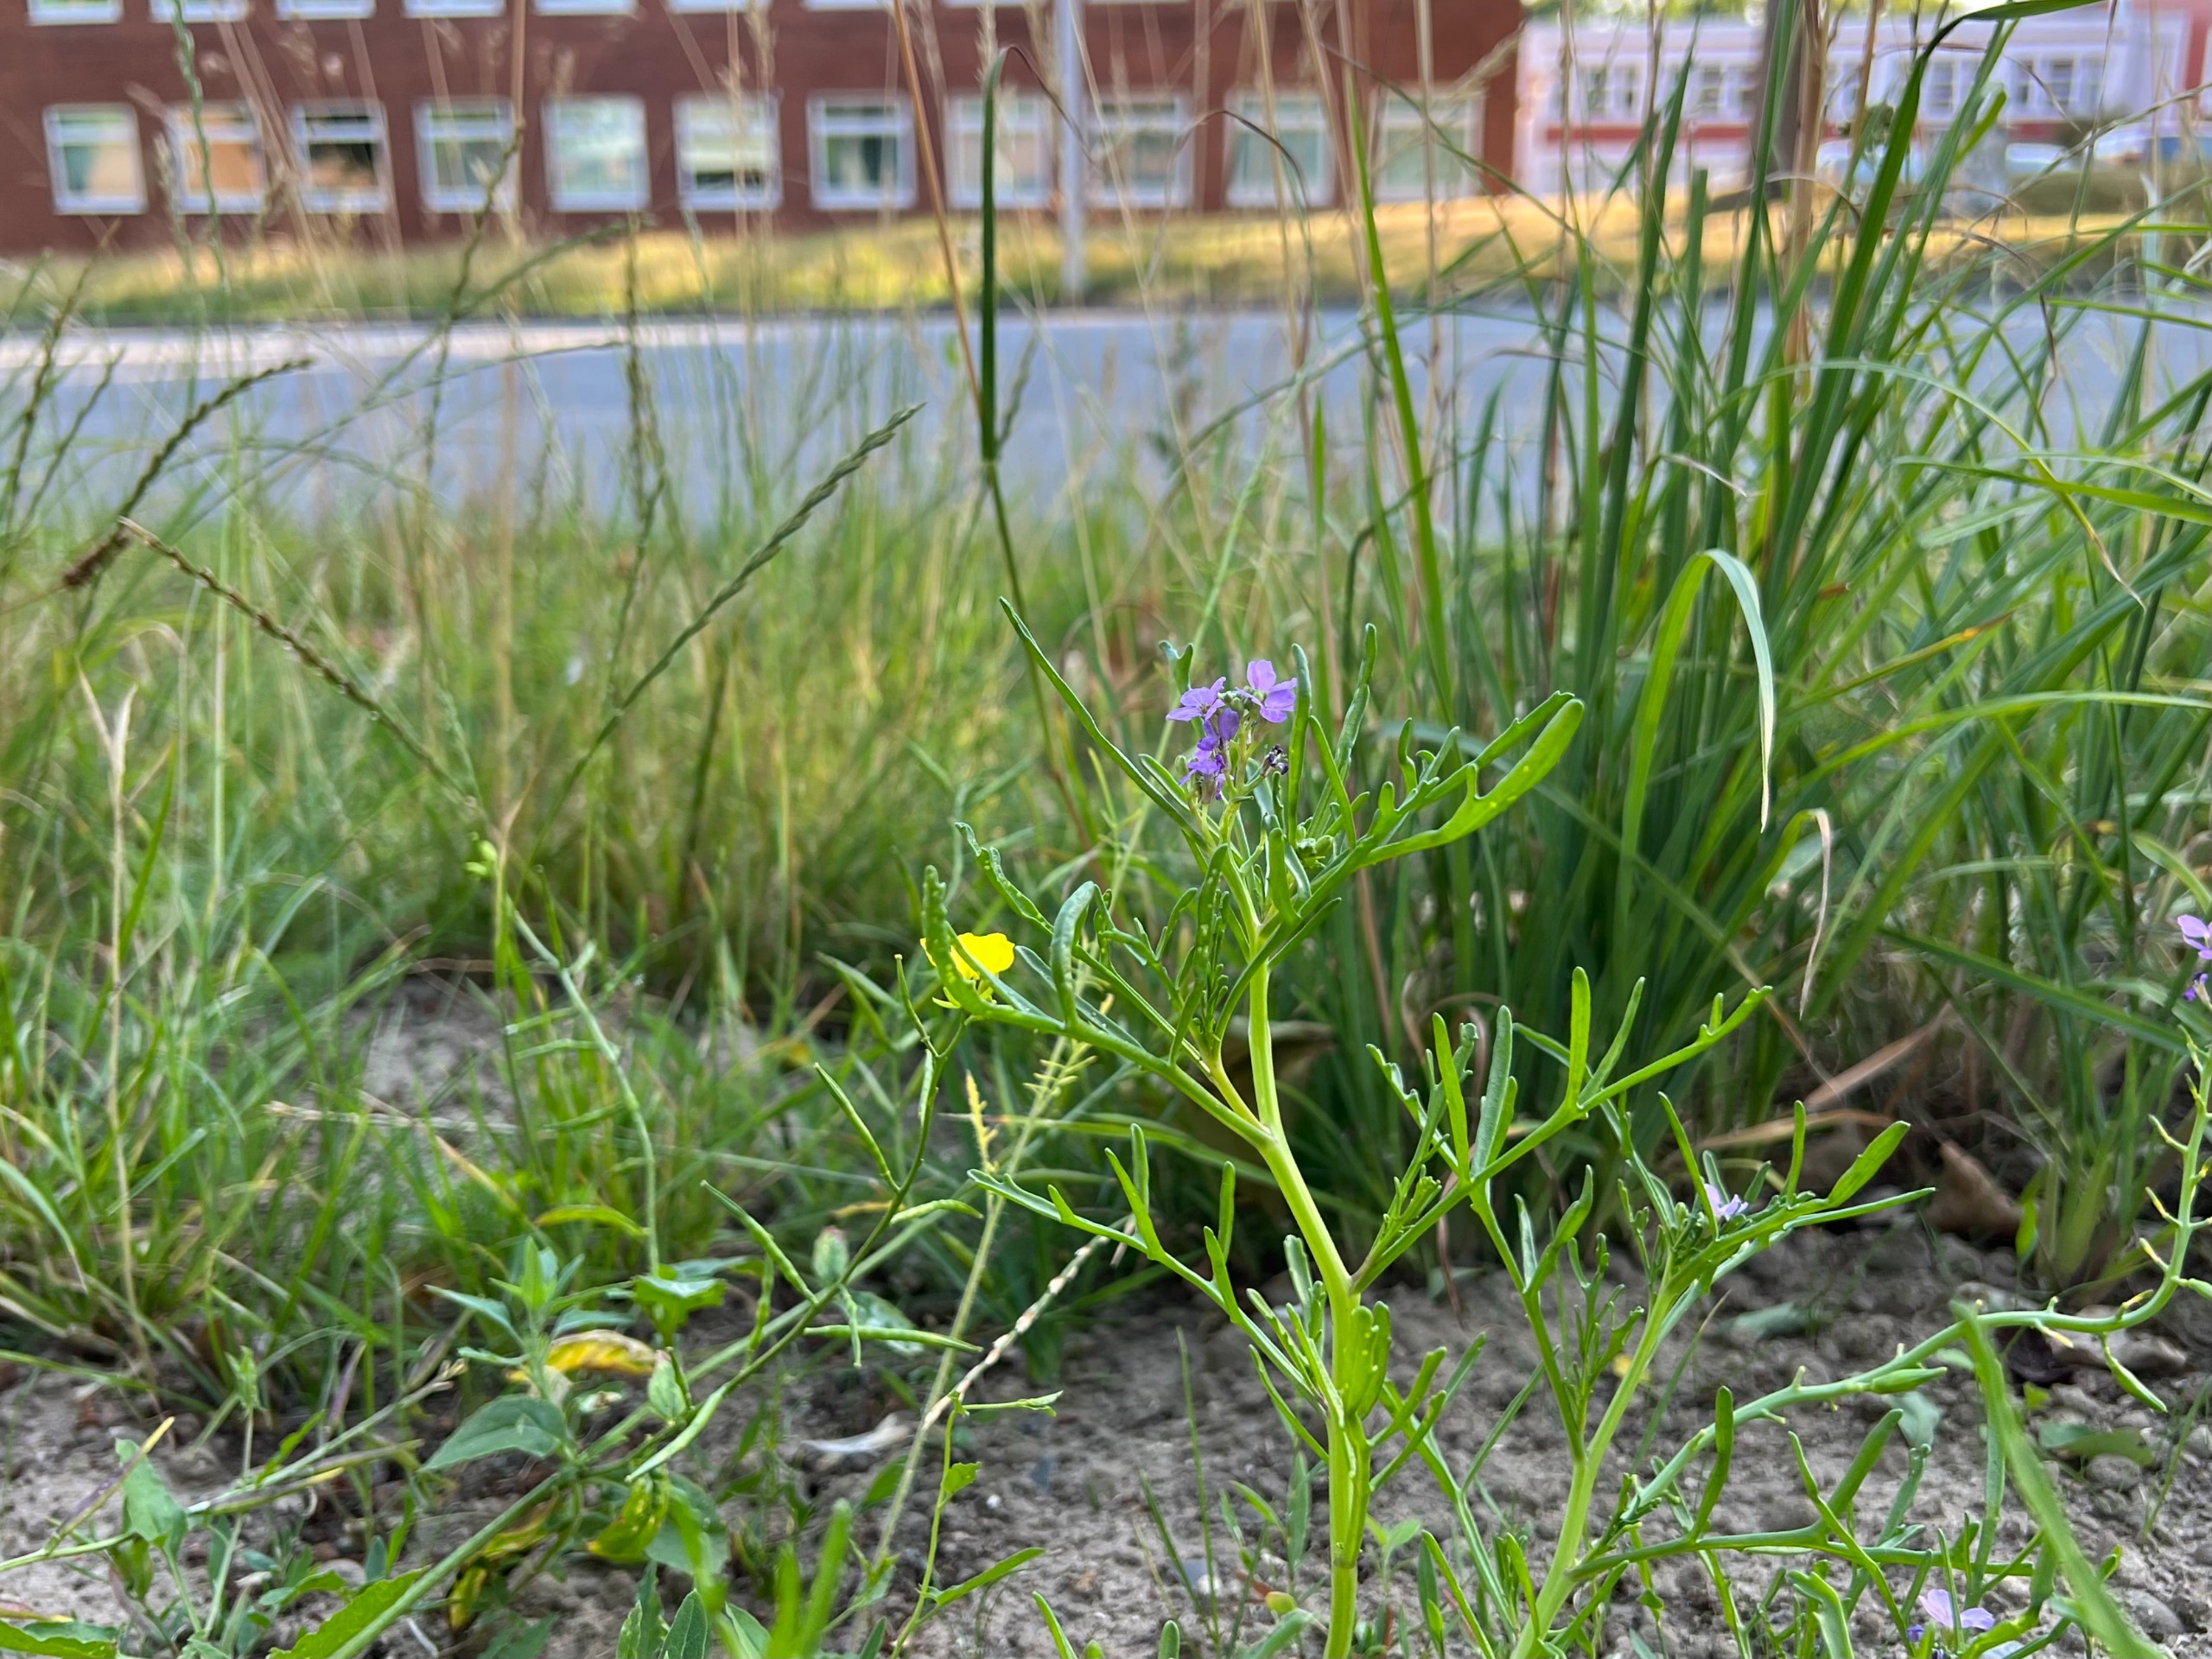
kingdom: Plantae
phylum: Tracheophyta
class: Magnoliopsida
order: Brassicales
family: Brassicaceae
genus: Cakile
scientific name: Cakile maritima
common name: Strandsennep
